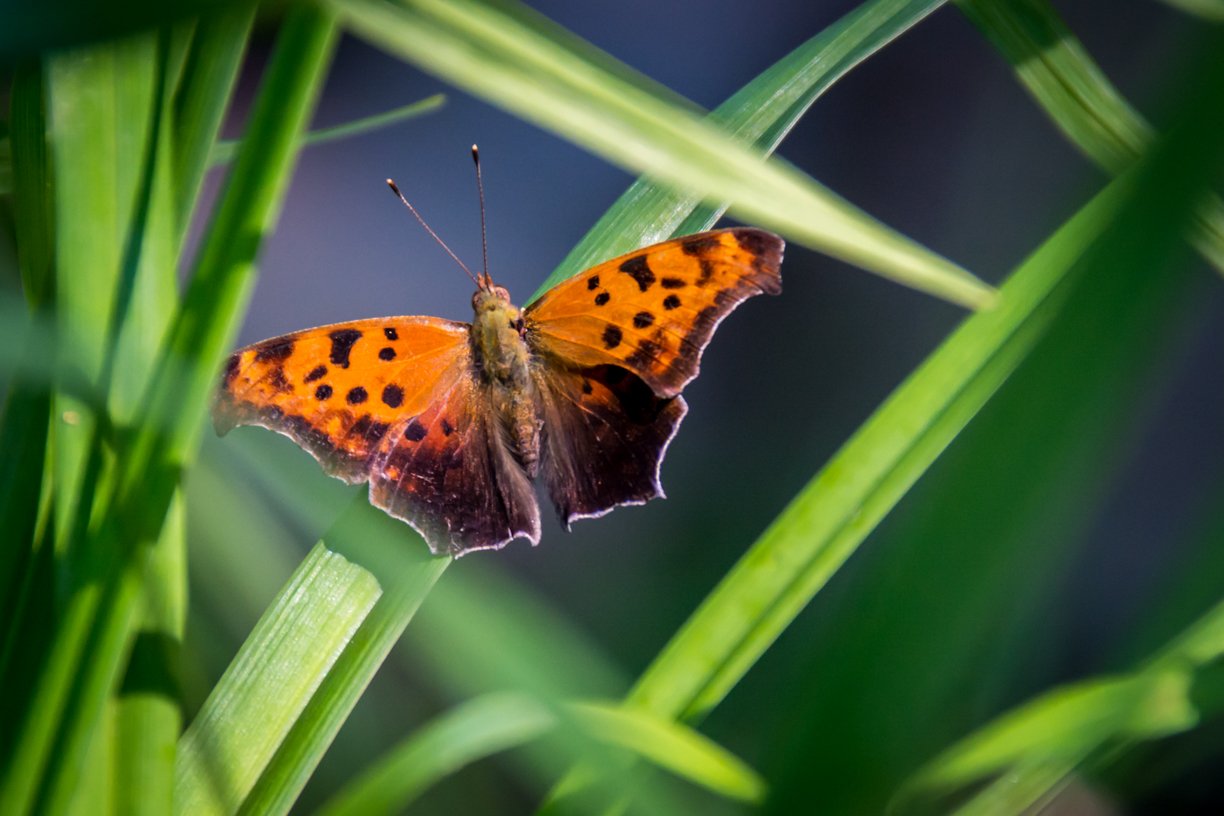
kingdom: Animalia
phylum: Arthropoda
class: Insecta
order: Lepidoptera
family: Nymphalidae
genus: Polygonia
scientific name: Polygonia interrogationis
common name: Question Mark
